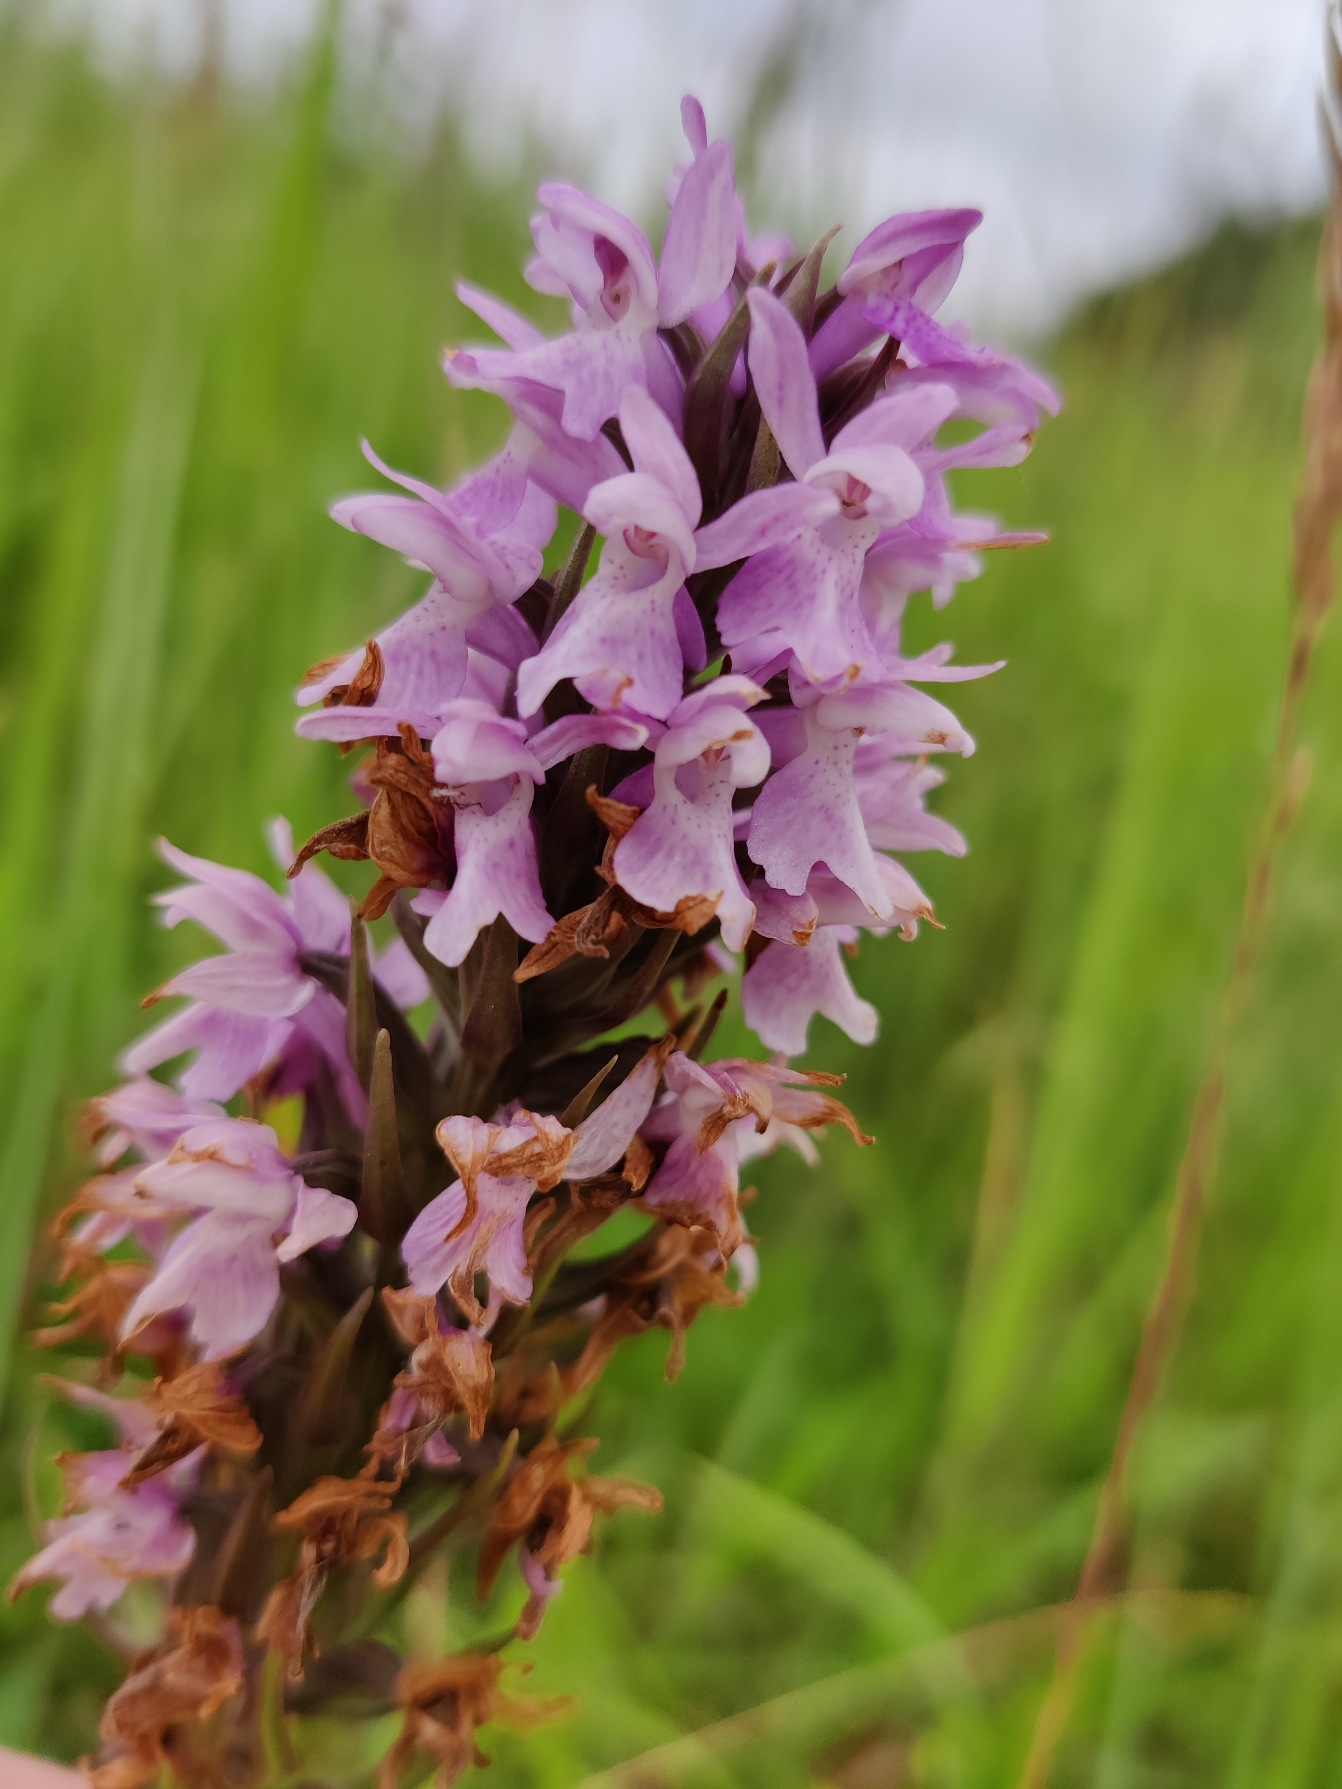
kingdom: Plantae
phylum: Tracheophyta
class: Liliopsida
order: Asparagales
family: Orchidaceae
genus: Dactylorhiza
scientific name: Dactylorhiza majalis
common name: Priklæbet gøgeurt
